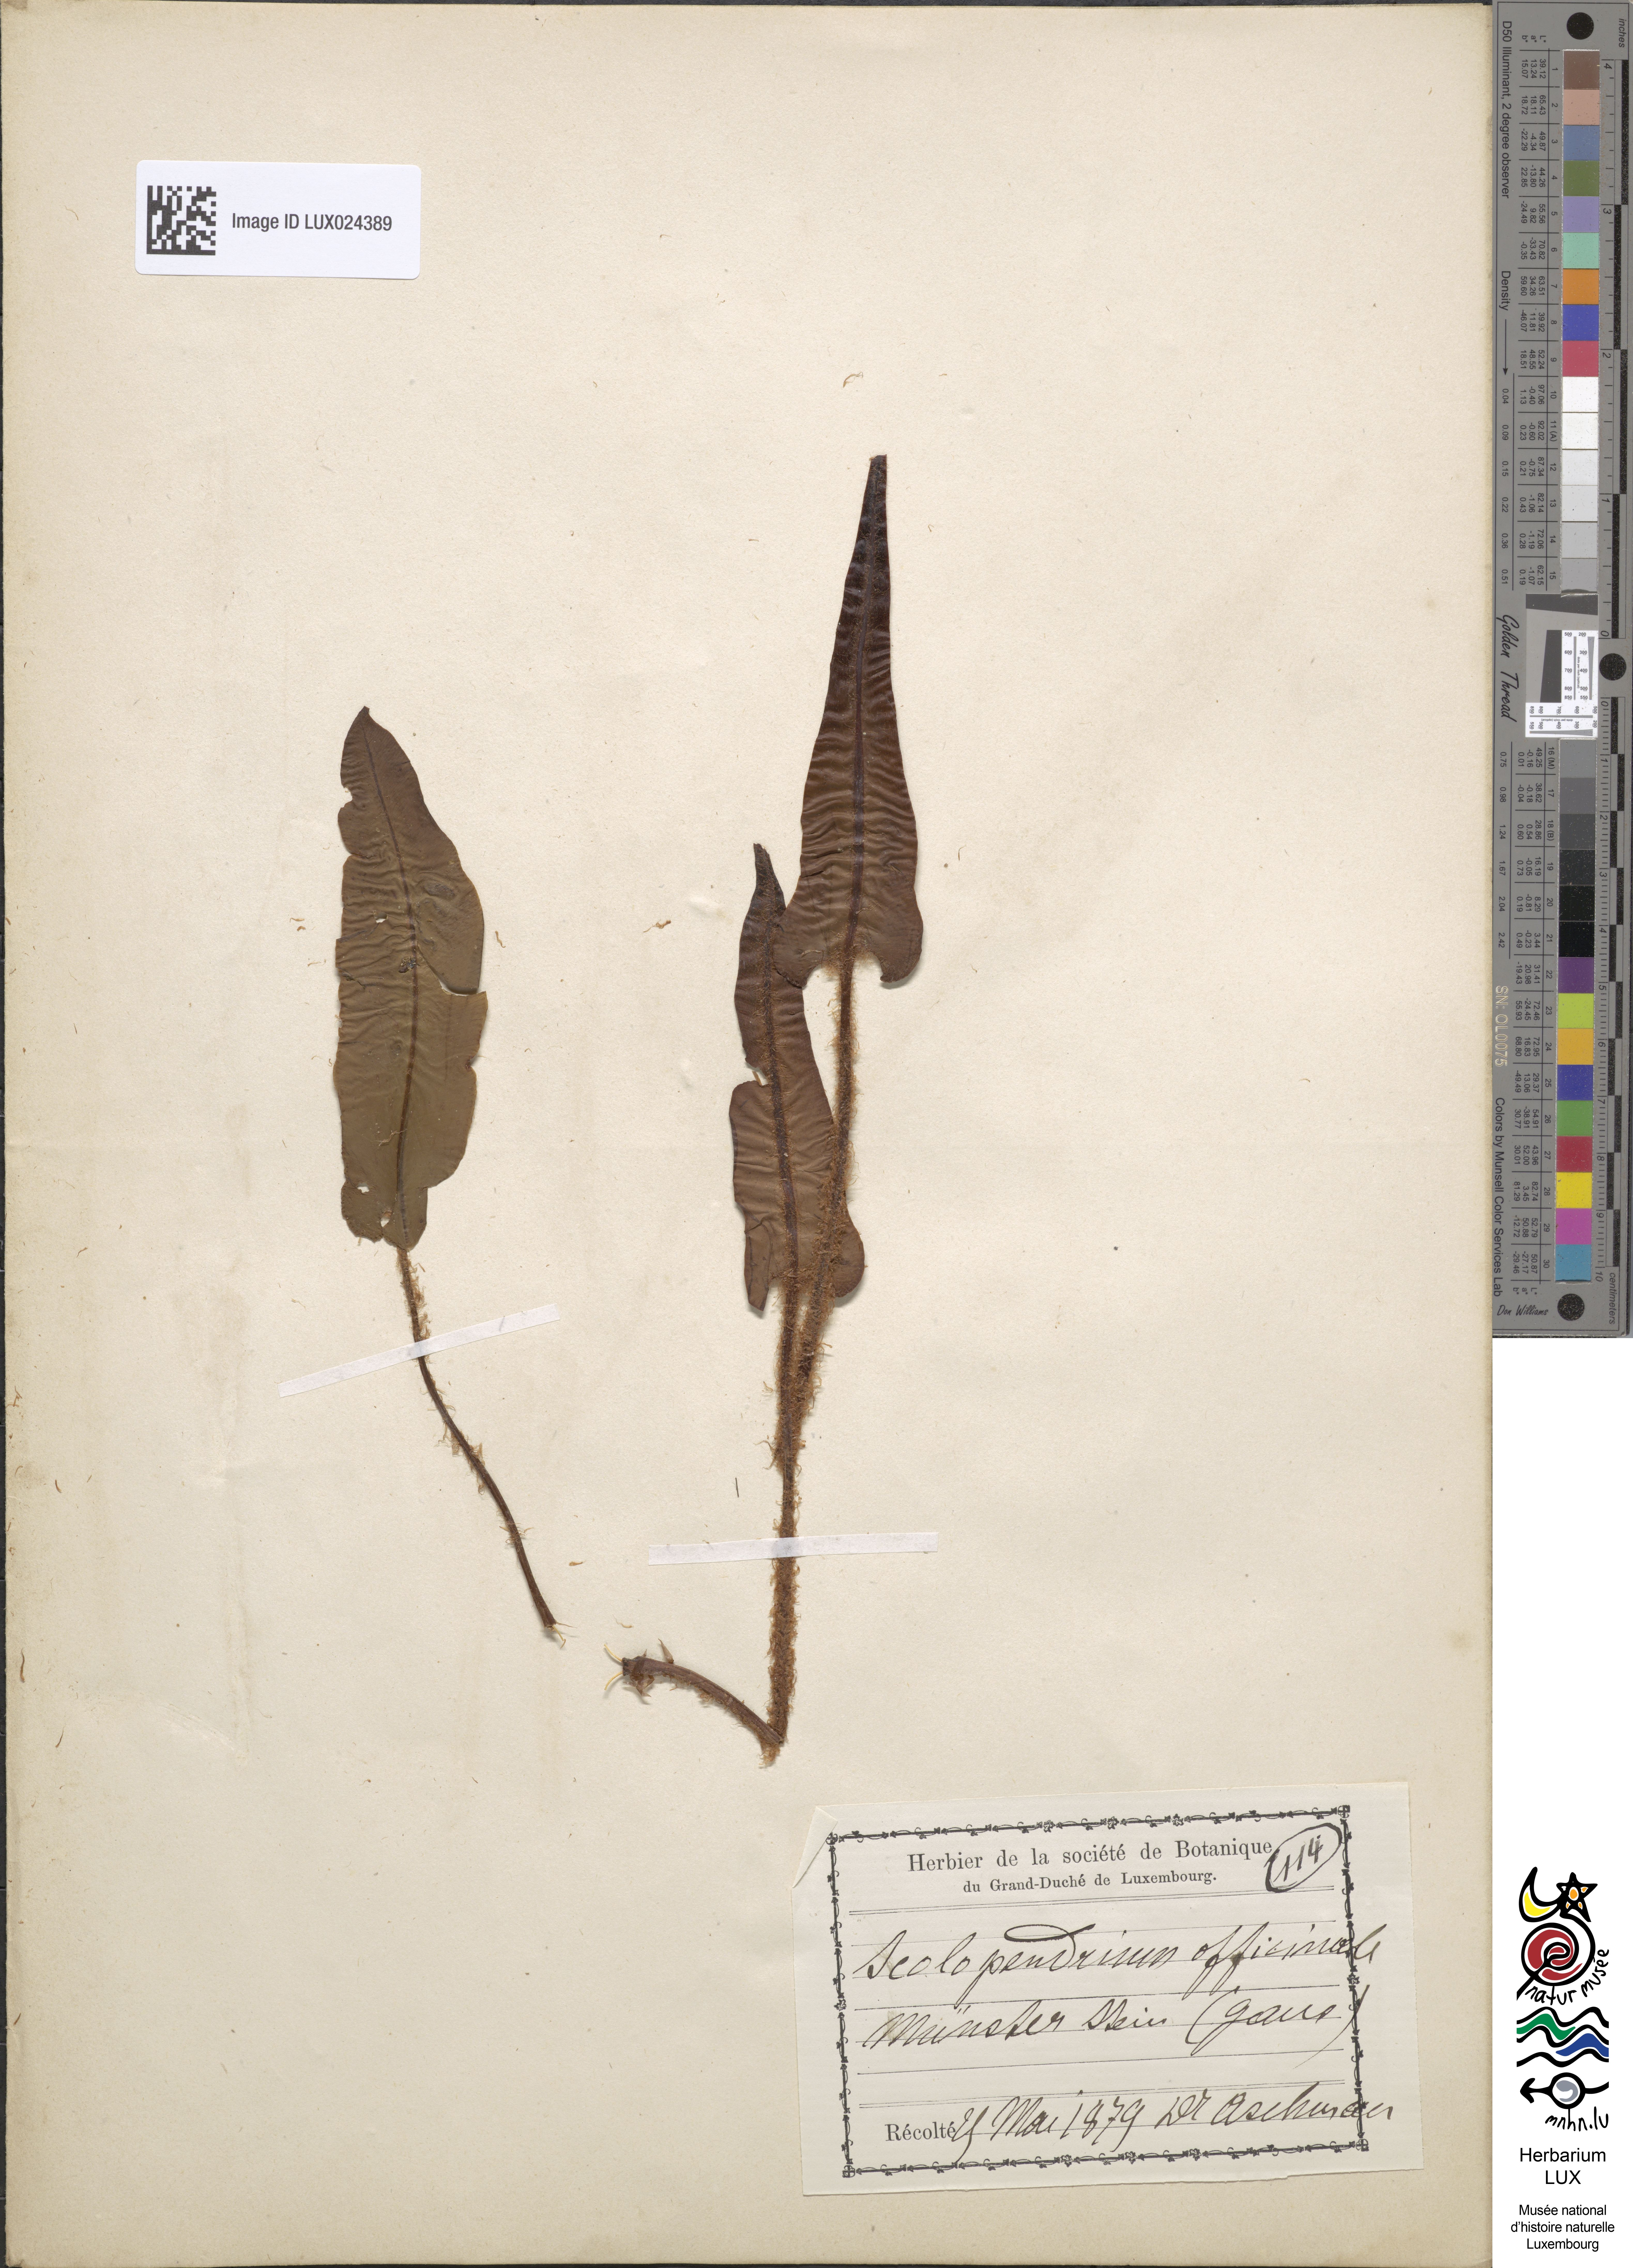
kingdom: Plantae
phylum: Tracheophyta
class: Polypodiopsida
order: Polypodiales
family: Aspleniaceae
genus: Asplenium
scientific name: Asplenium scolopendrium
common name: Hart's-tongue fern
